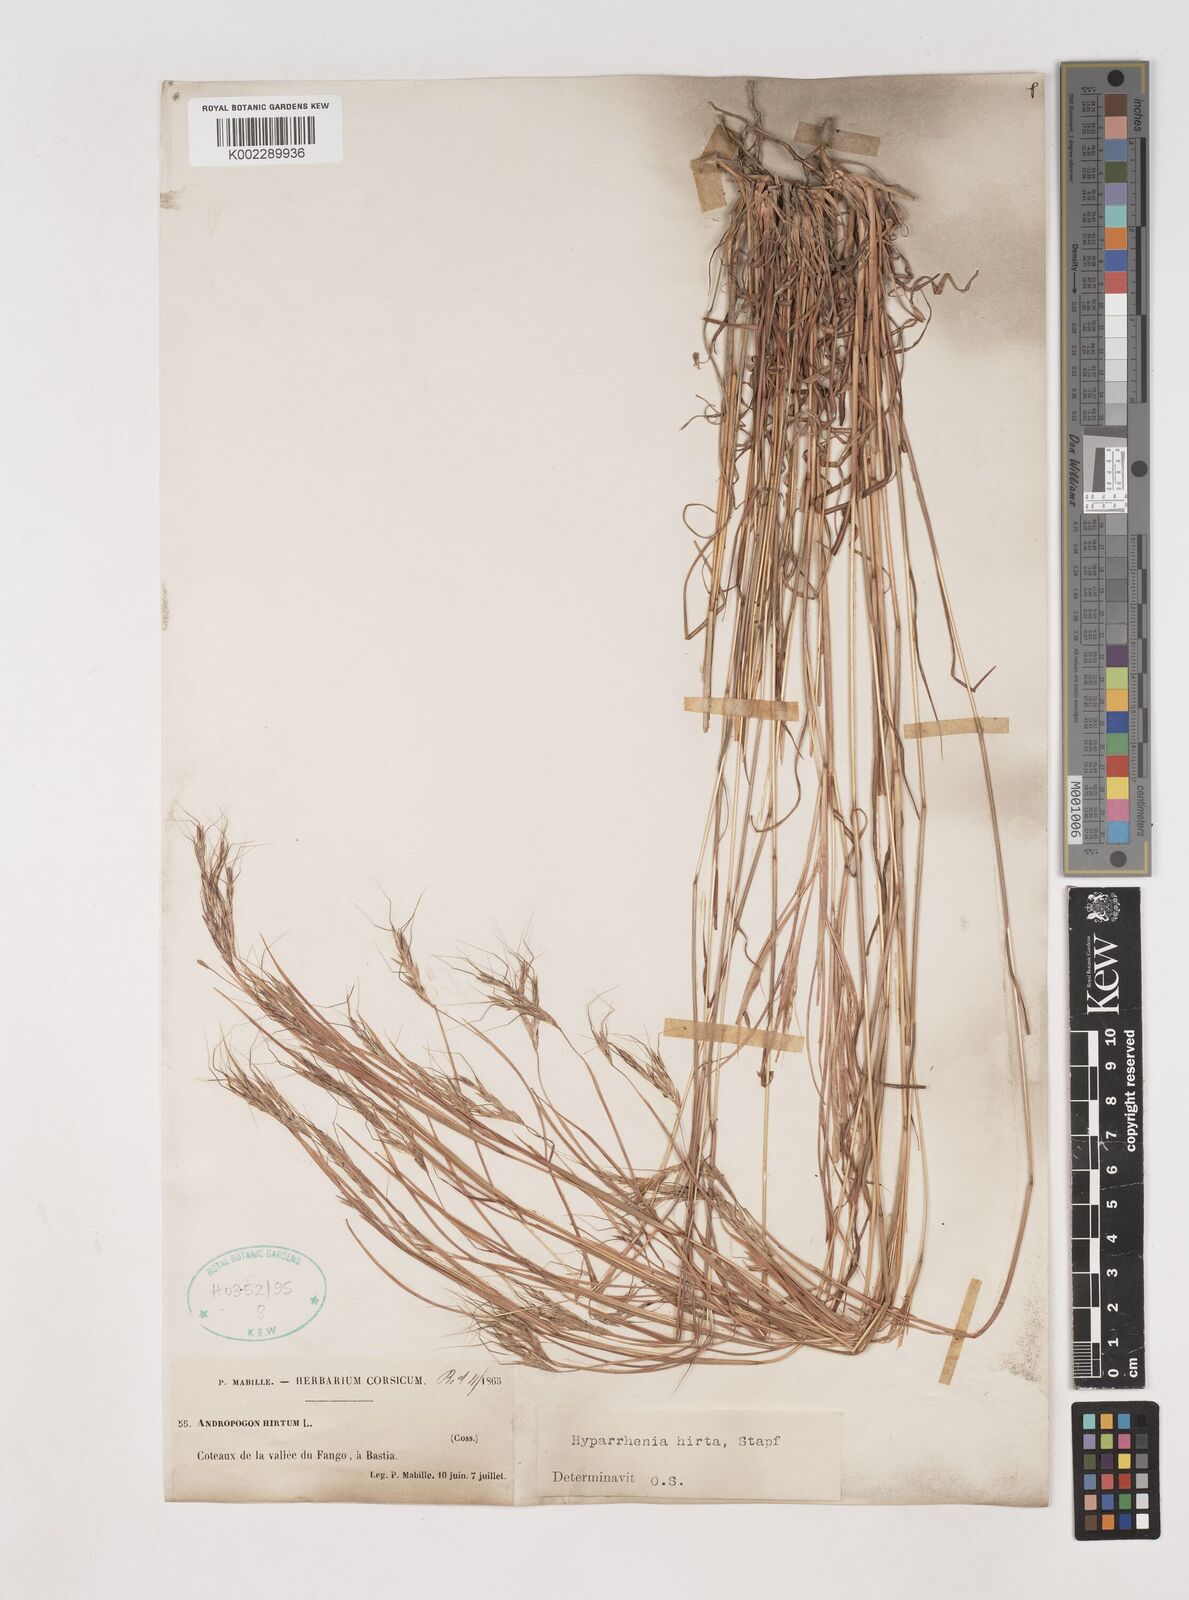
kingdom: Plantae
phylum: Tracheophyta
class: Liliopsida
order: Poales
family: Poaceae
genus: Hyparrhenia
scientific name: Hyparrhenia hirta
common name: Thatching grass
